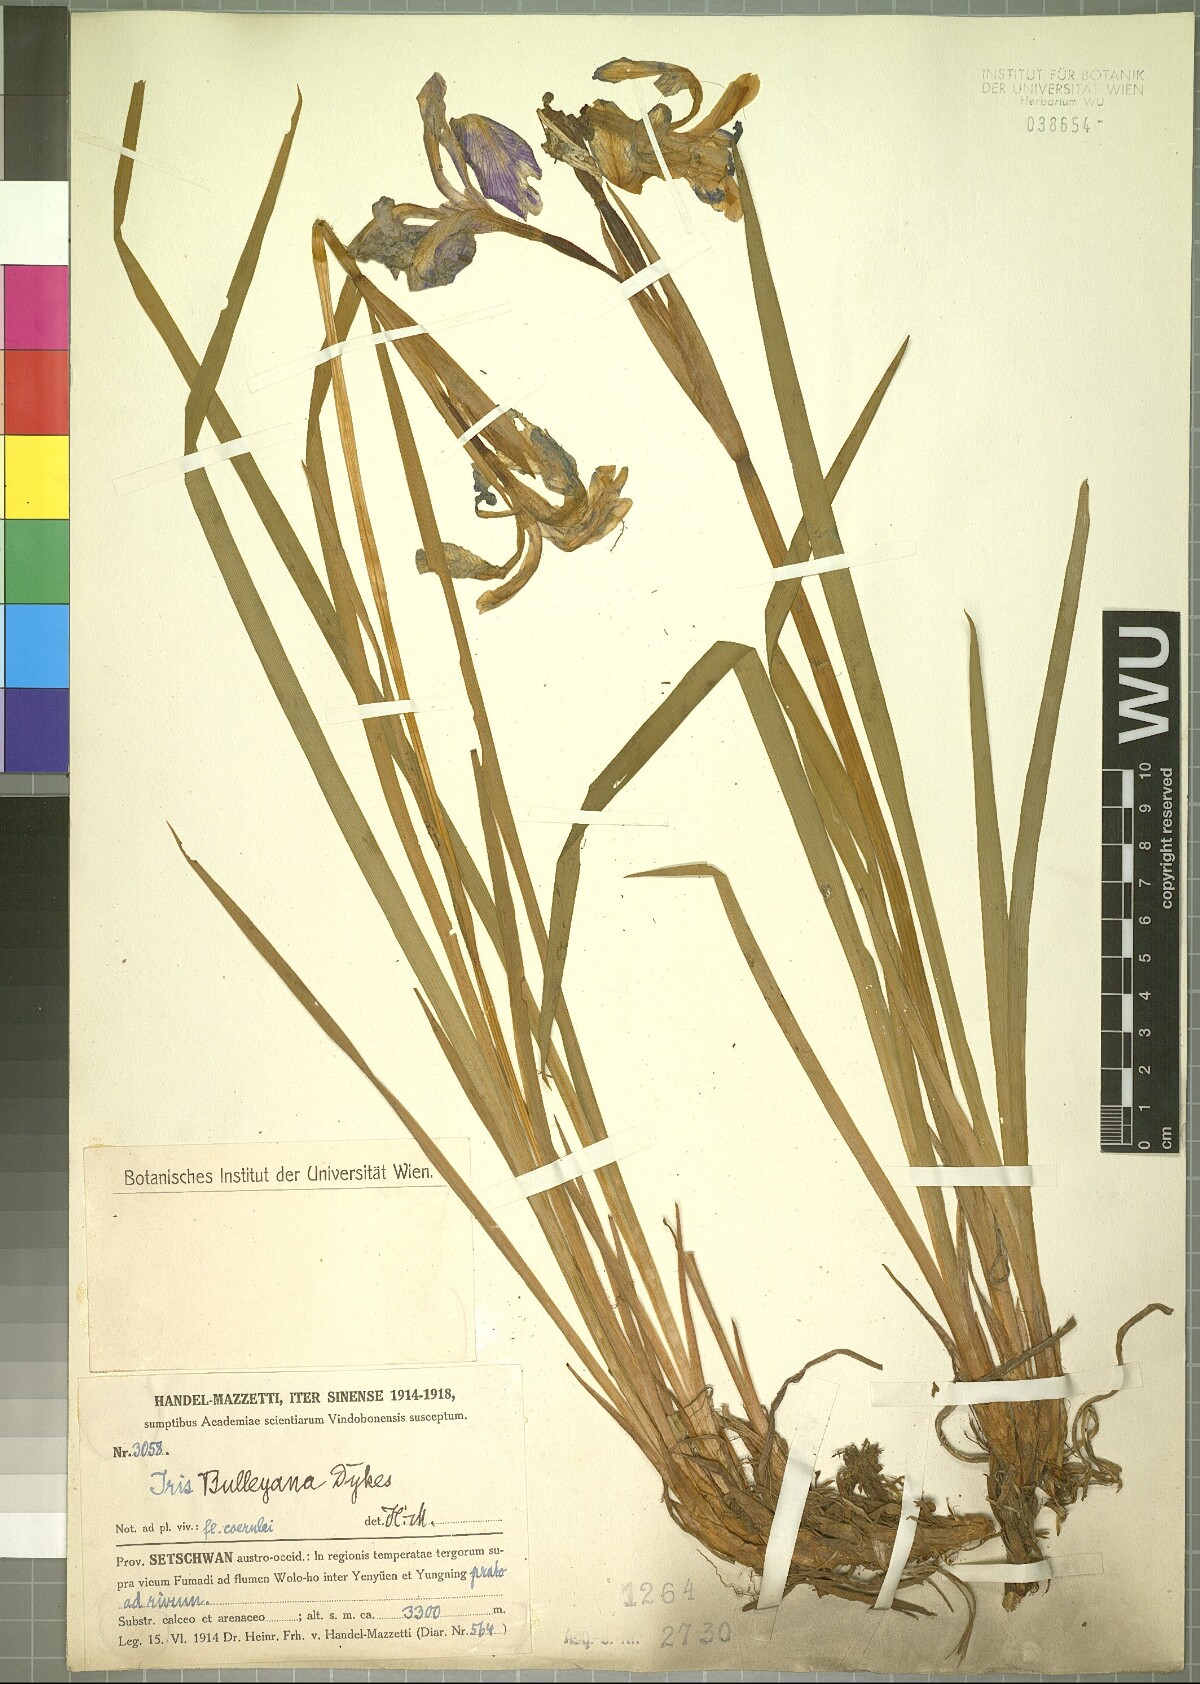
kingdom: Plantae
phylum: Tracheophyta
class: Liliopsida
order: Asparagales
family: Iridaceae
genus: Iris
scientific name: Iris bulleyana
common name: Southwest iris
